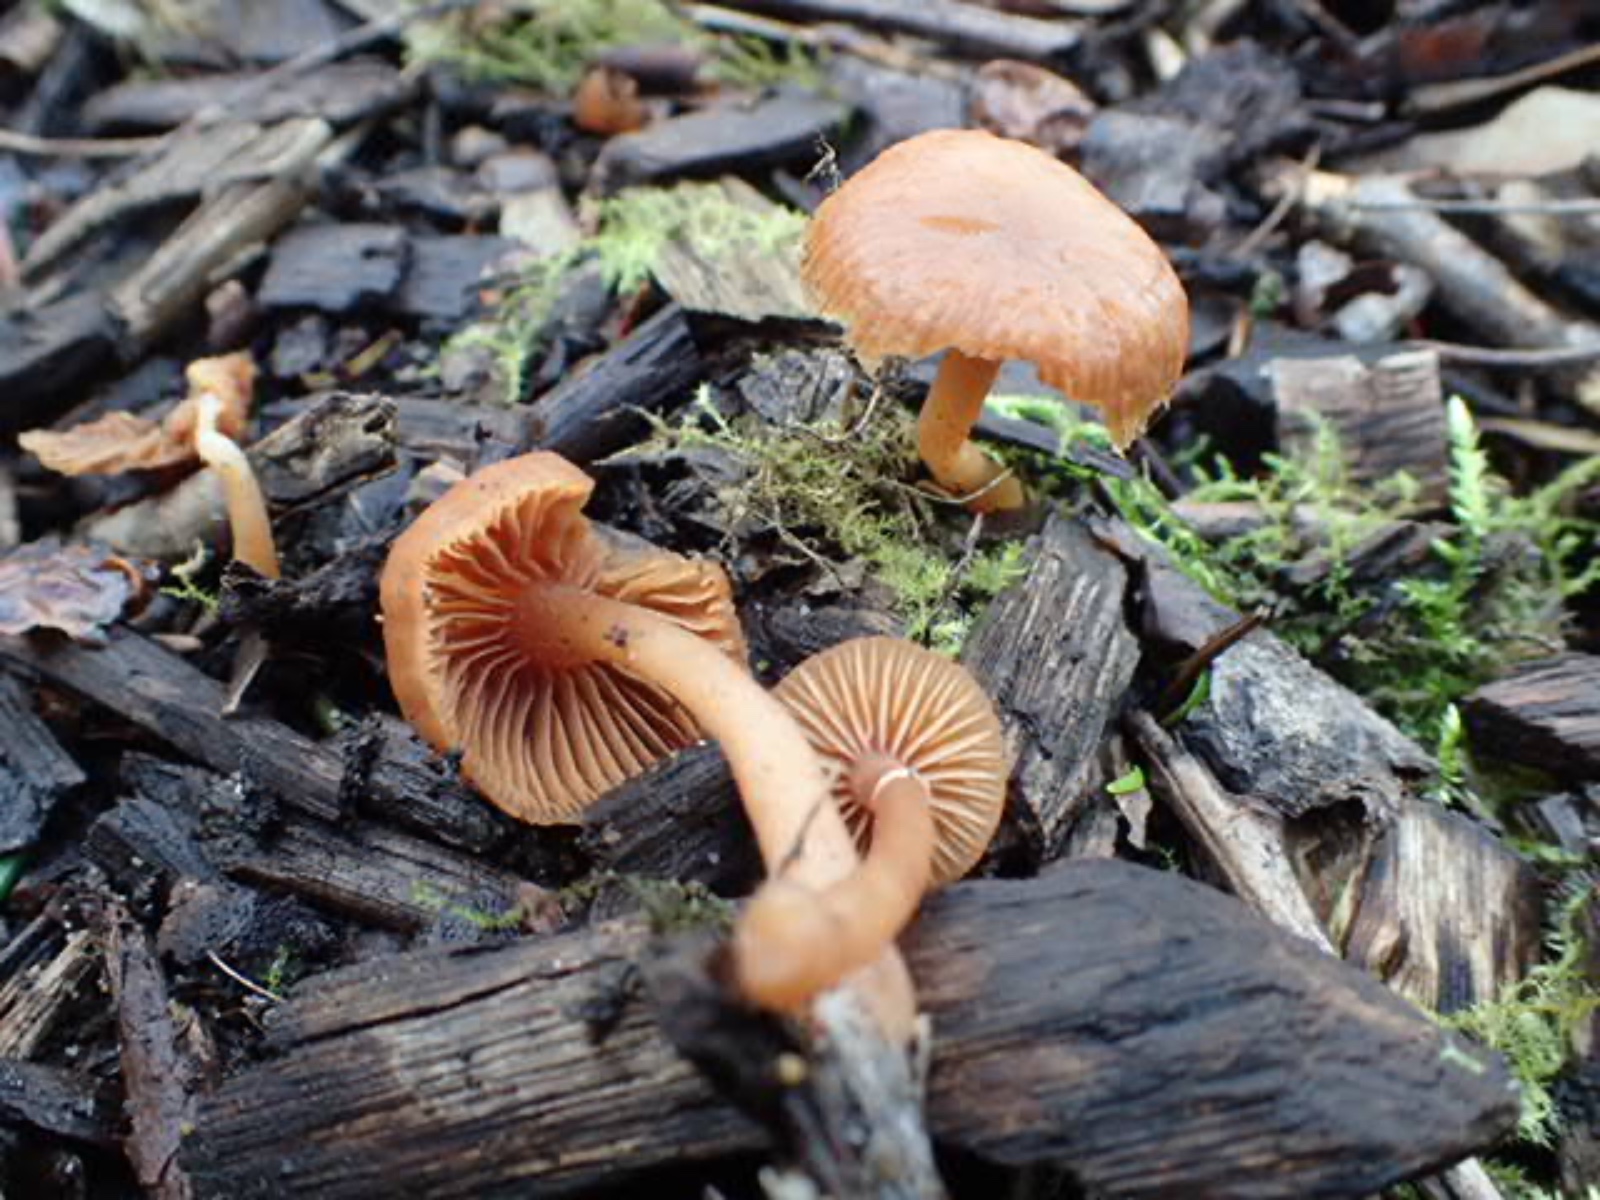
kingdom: Fungi
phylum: Basidiomycota
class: Agaricomycetes
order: Agaricales
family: Tubariaceae
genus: Tubaria
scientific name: Tubaria furfuracea
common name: kliddet fnughat
